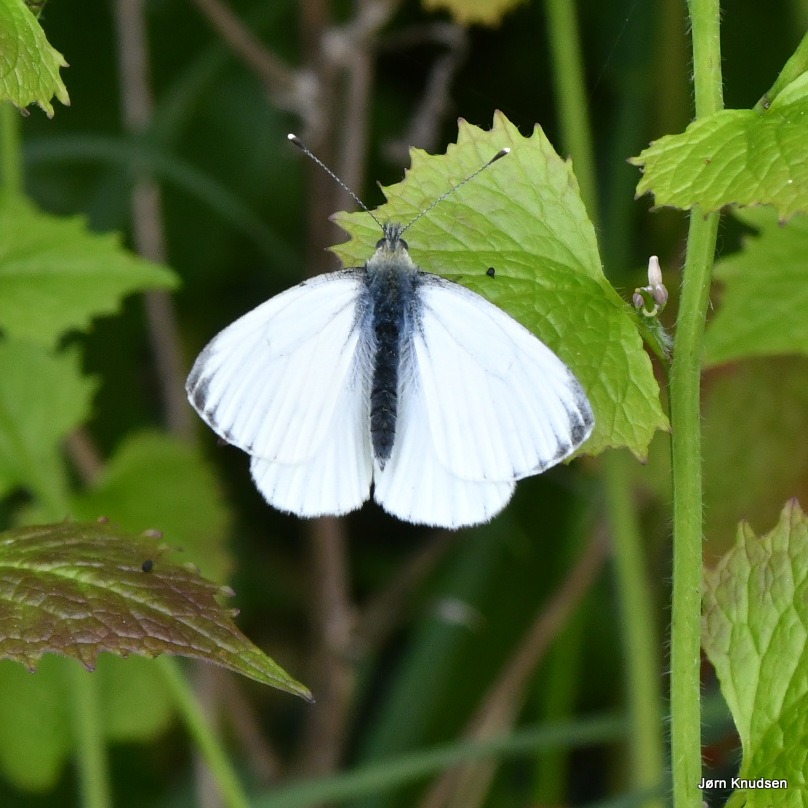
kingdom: Animalia
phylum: Arthropoda
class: Insecta
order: Lepidoptera
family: Pieridae
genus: Pieris
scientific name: Pieris napi
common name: Grønåret kålsommerfugl
